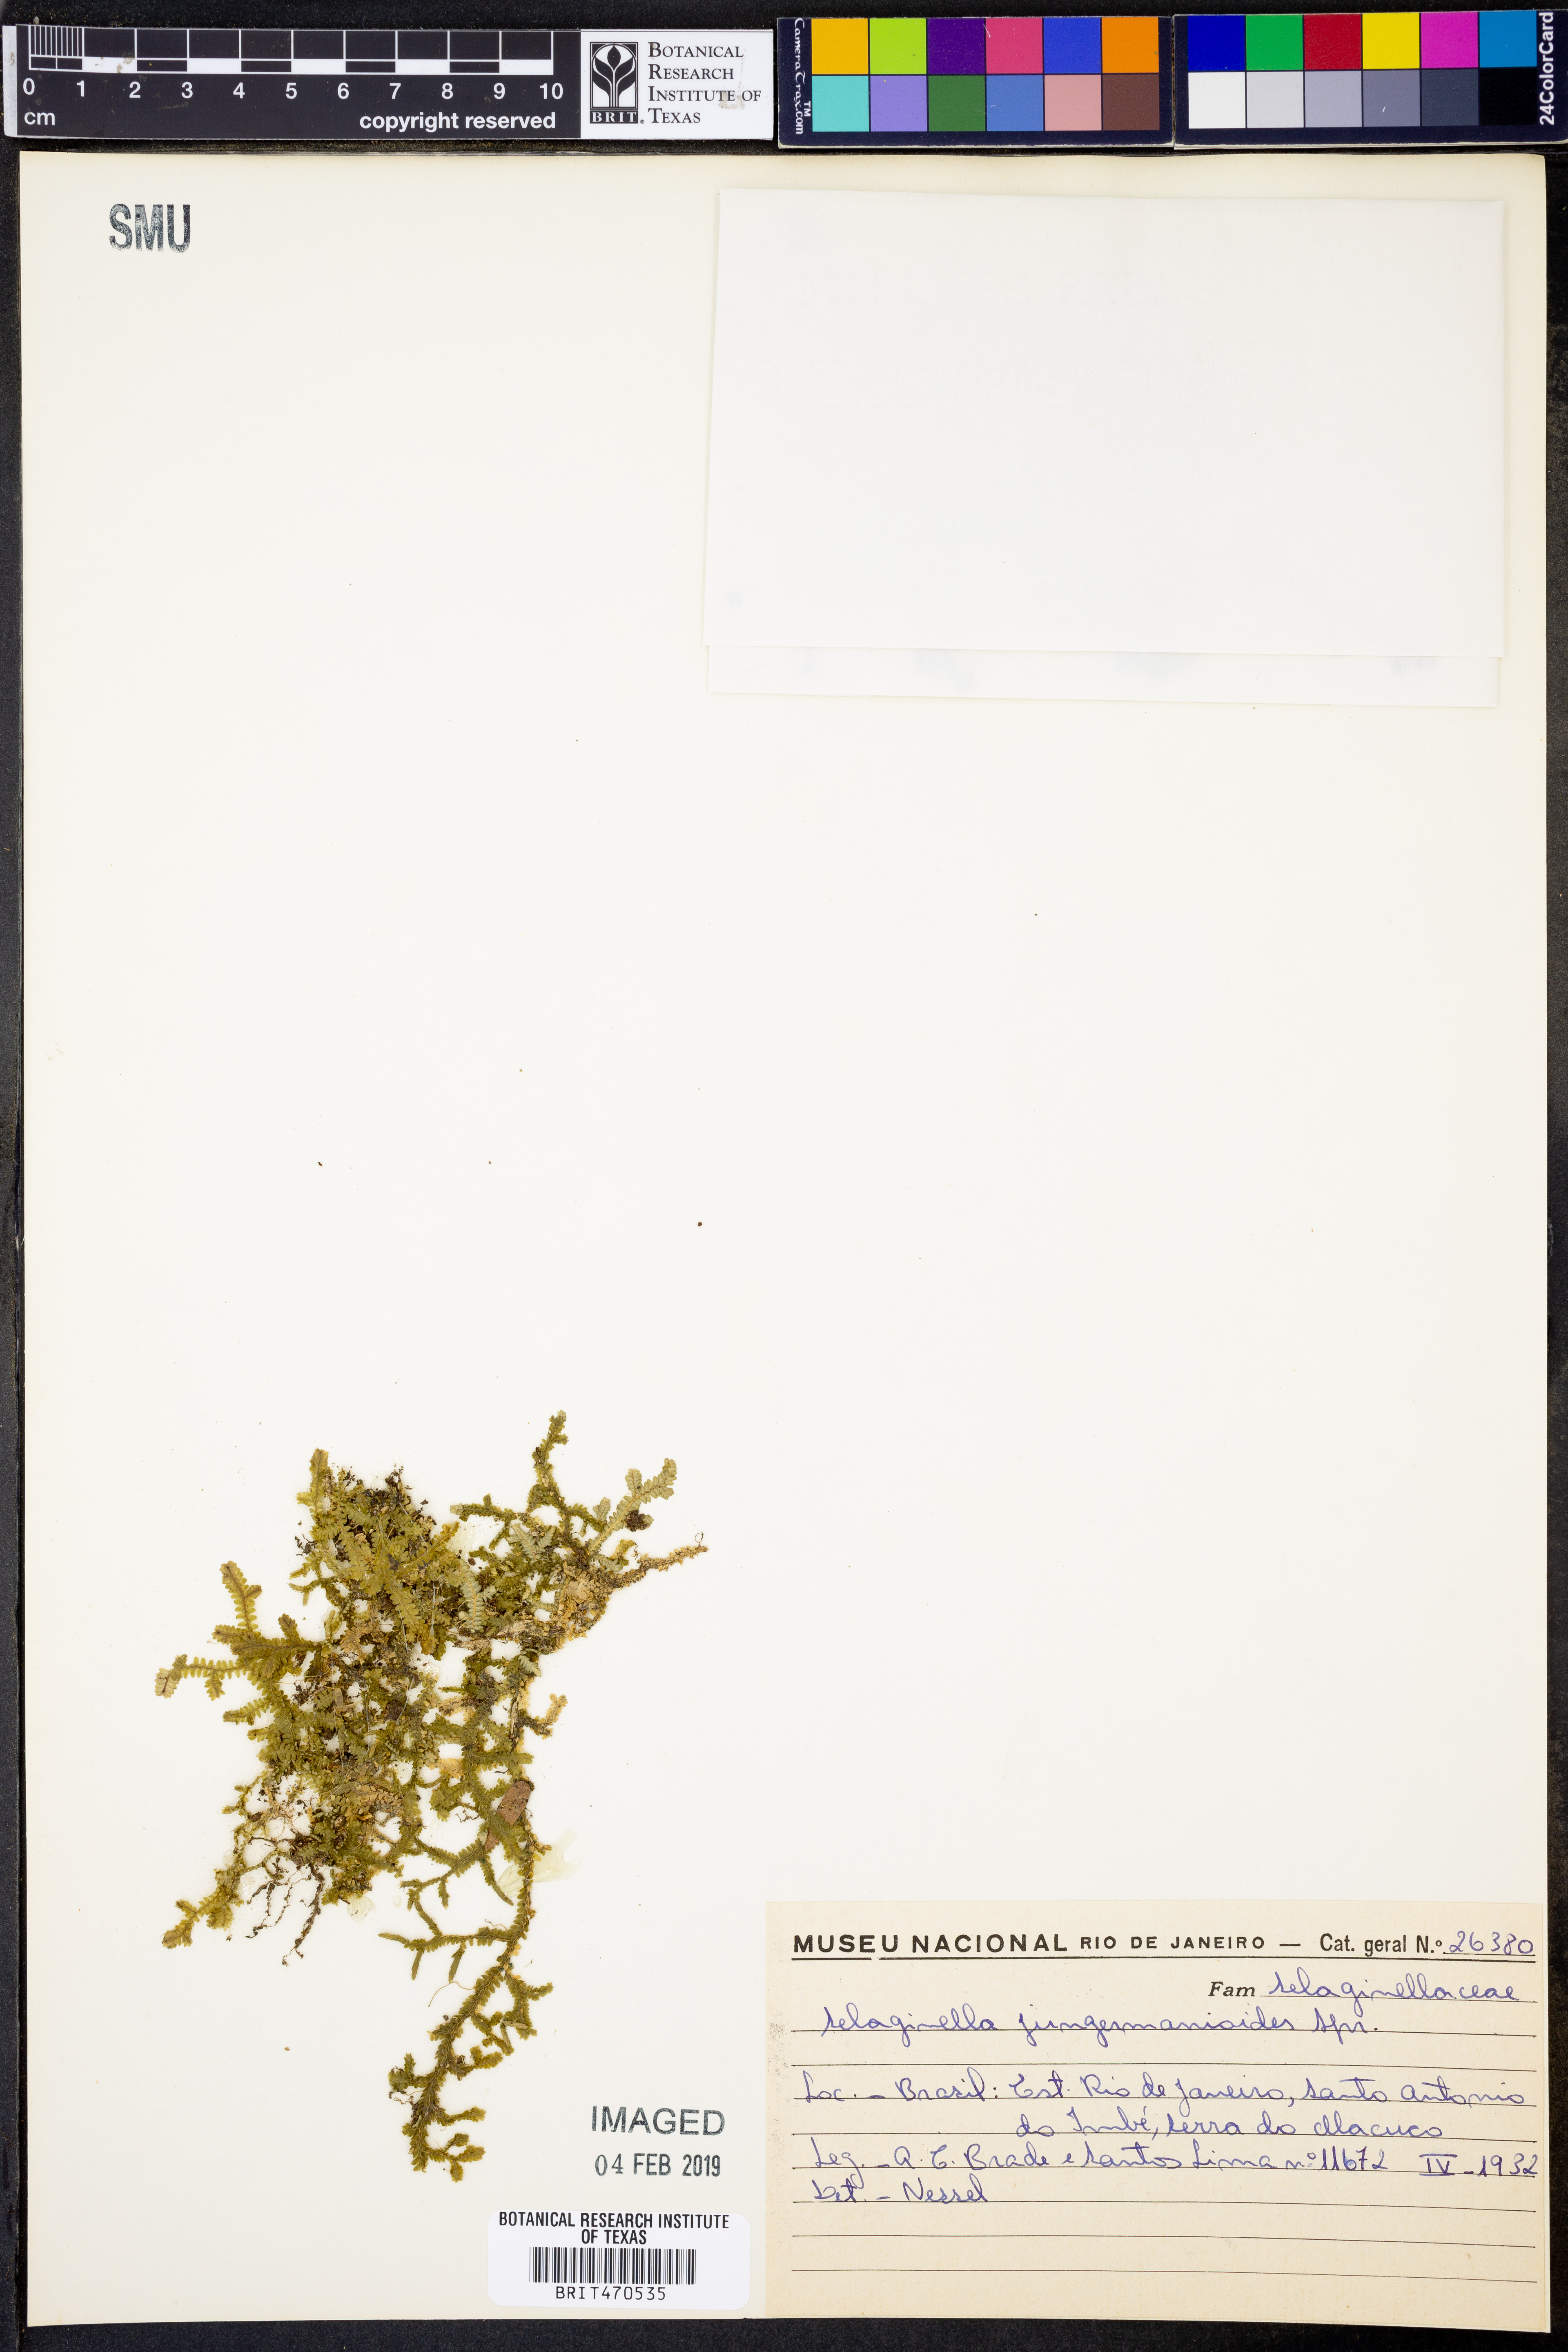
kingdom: Plantae
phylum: Tracheophyta
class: Lycopodiopsida
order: Selaginellales
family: Selaginellaceae
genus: Selaginella
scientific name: Selaginella jungermannioides
